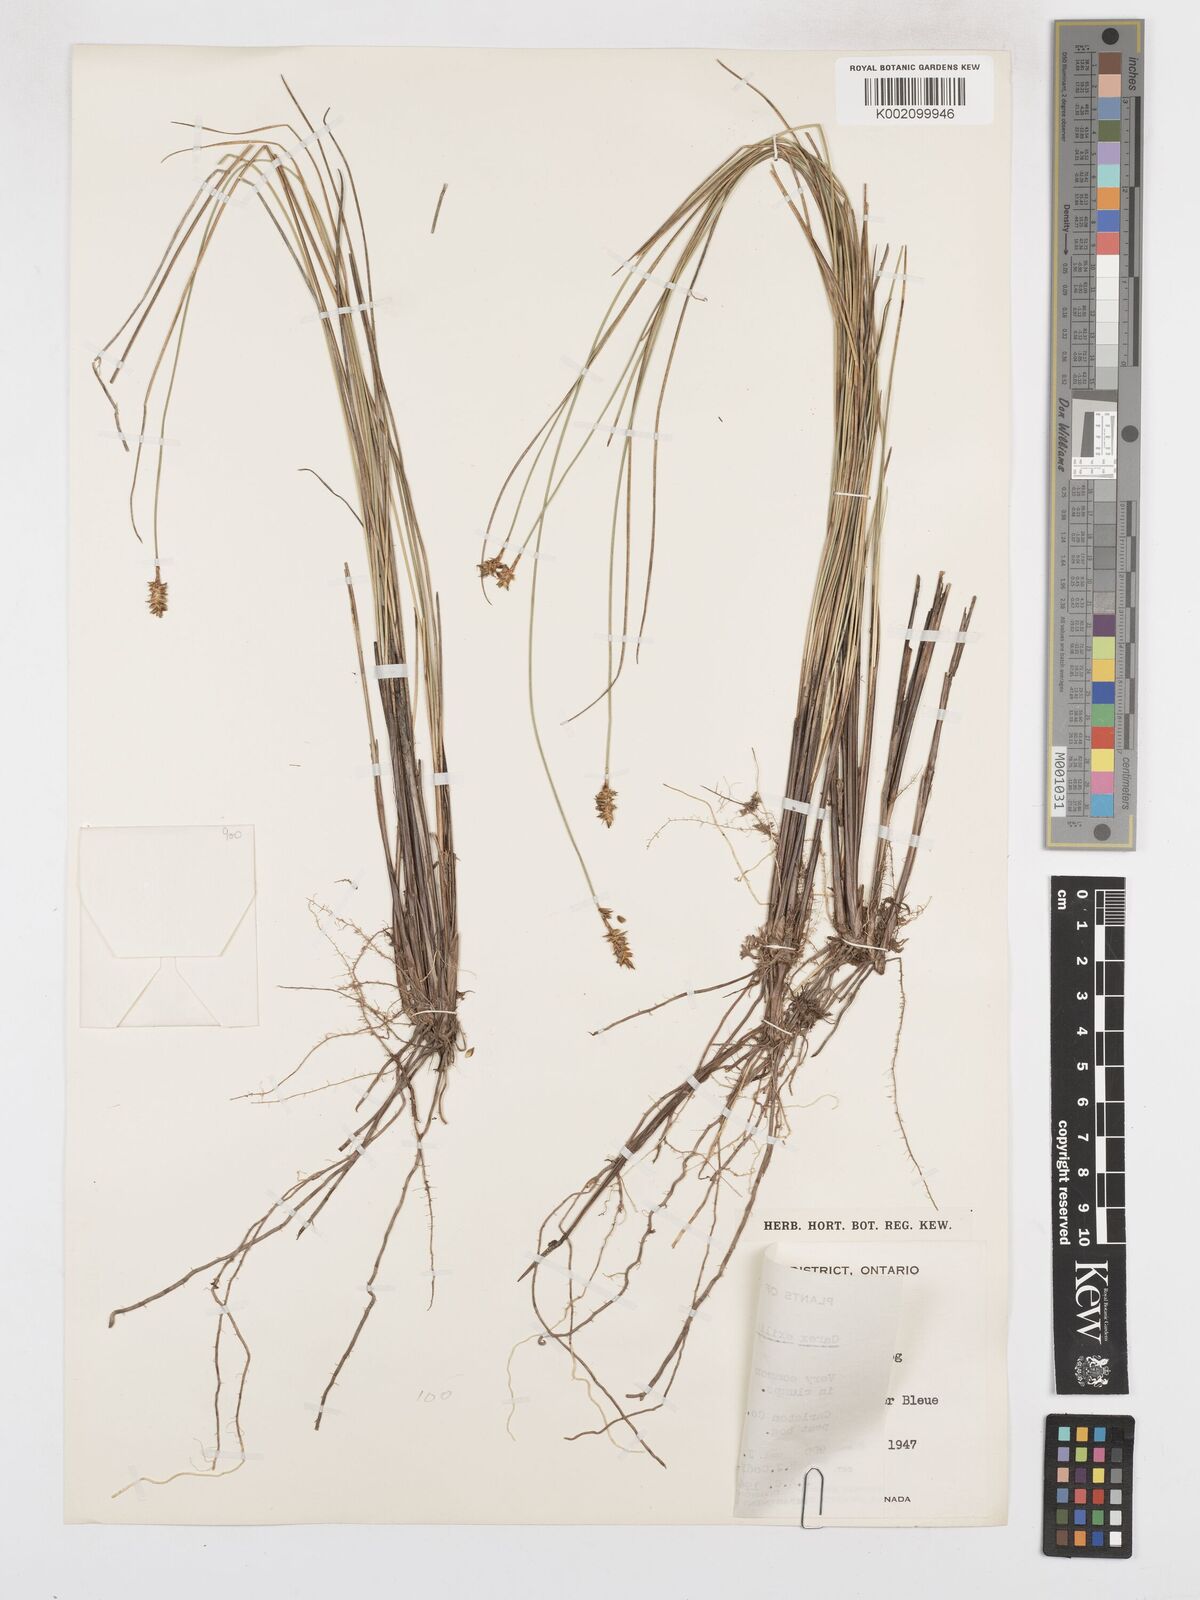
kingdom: Plantae
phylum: Tracheophyta
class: Liliopsida
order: Poales
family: Cyperaceae
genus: Carex
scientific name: Carex exilis
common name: Coastal sedge
